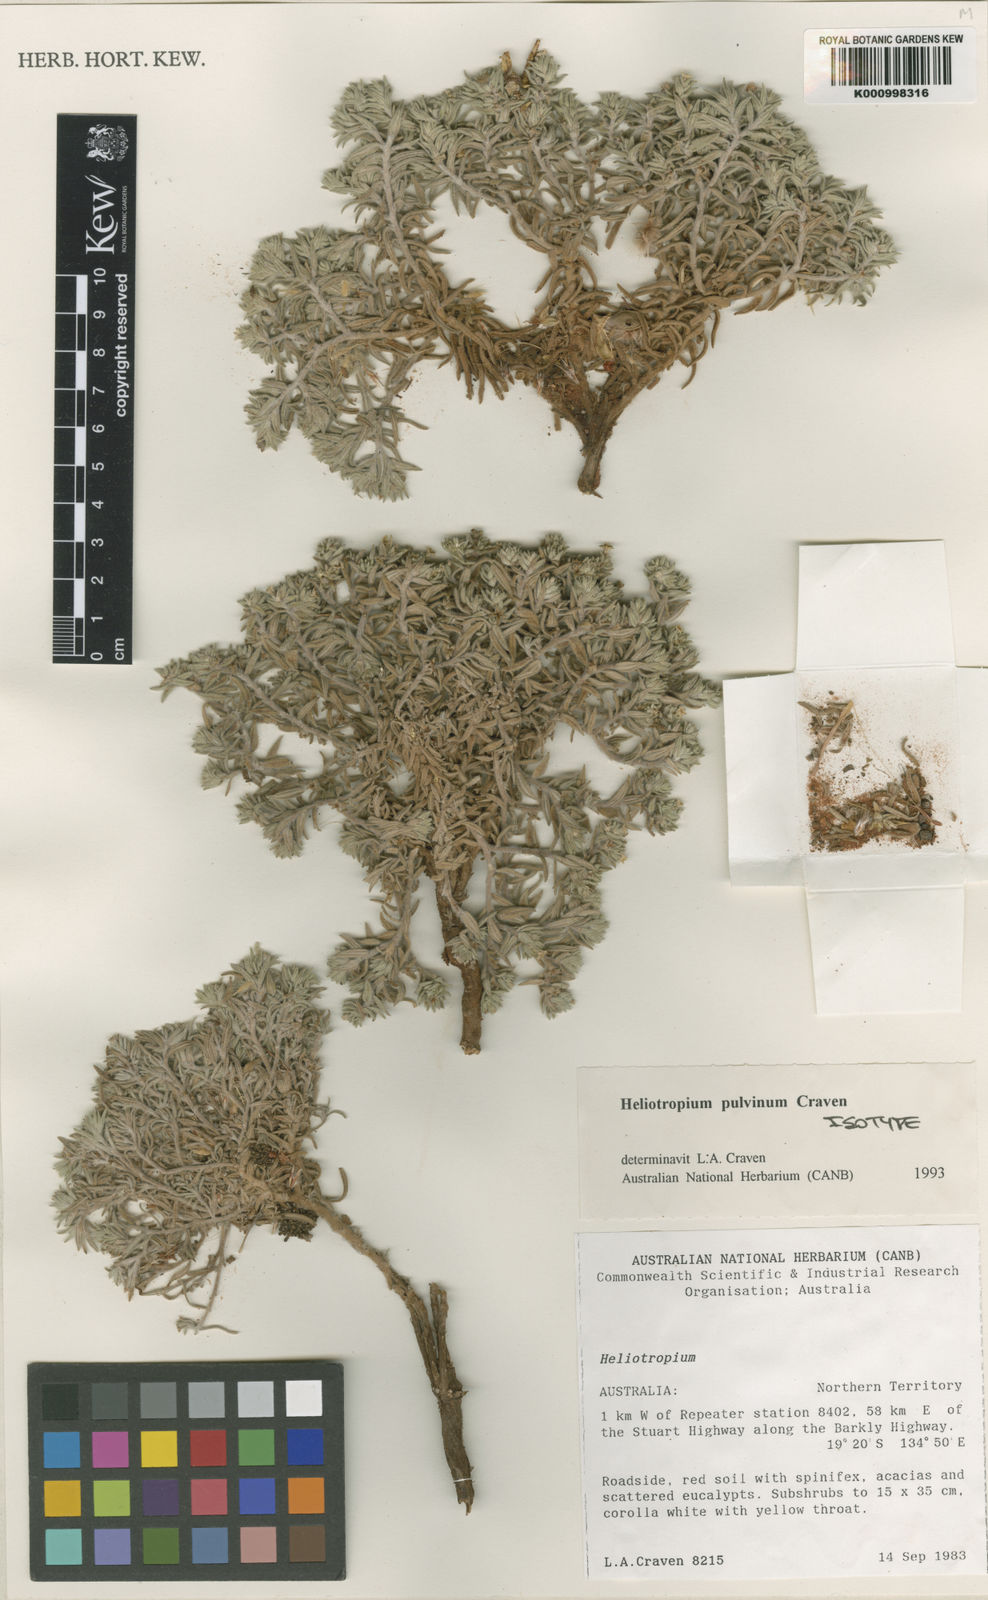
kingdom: Plantae
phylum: Tracheophyta
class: Magnoliopsida
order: Boraginales
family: Heliotropiaceae
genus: Euploca
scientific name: Euploca pulvina
